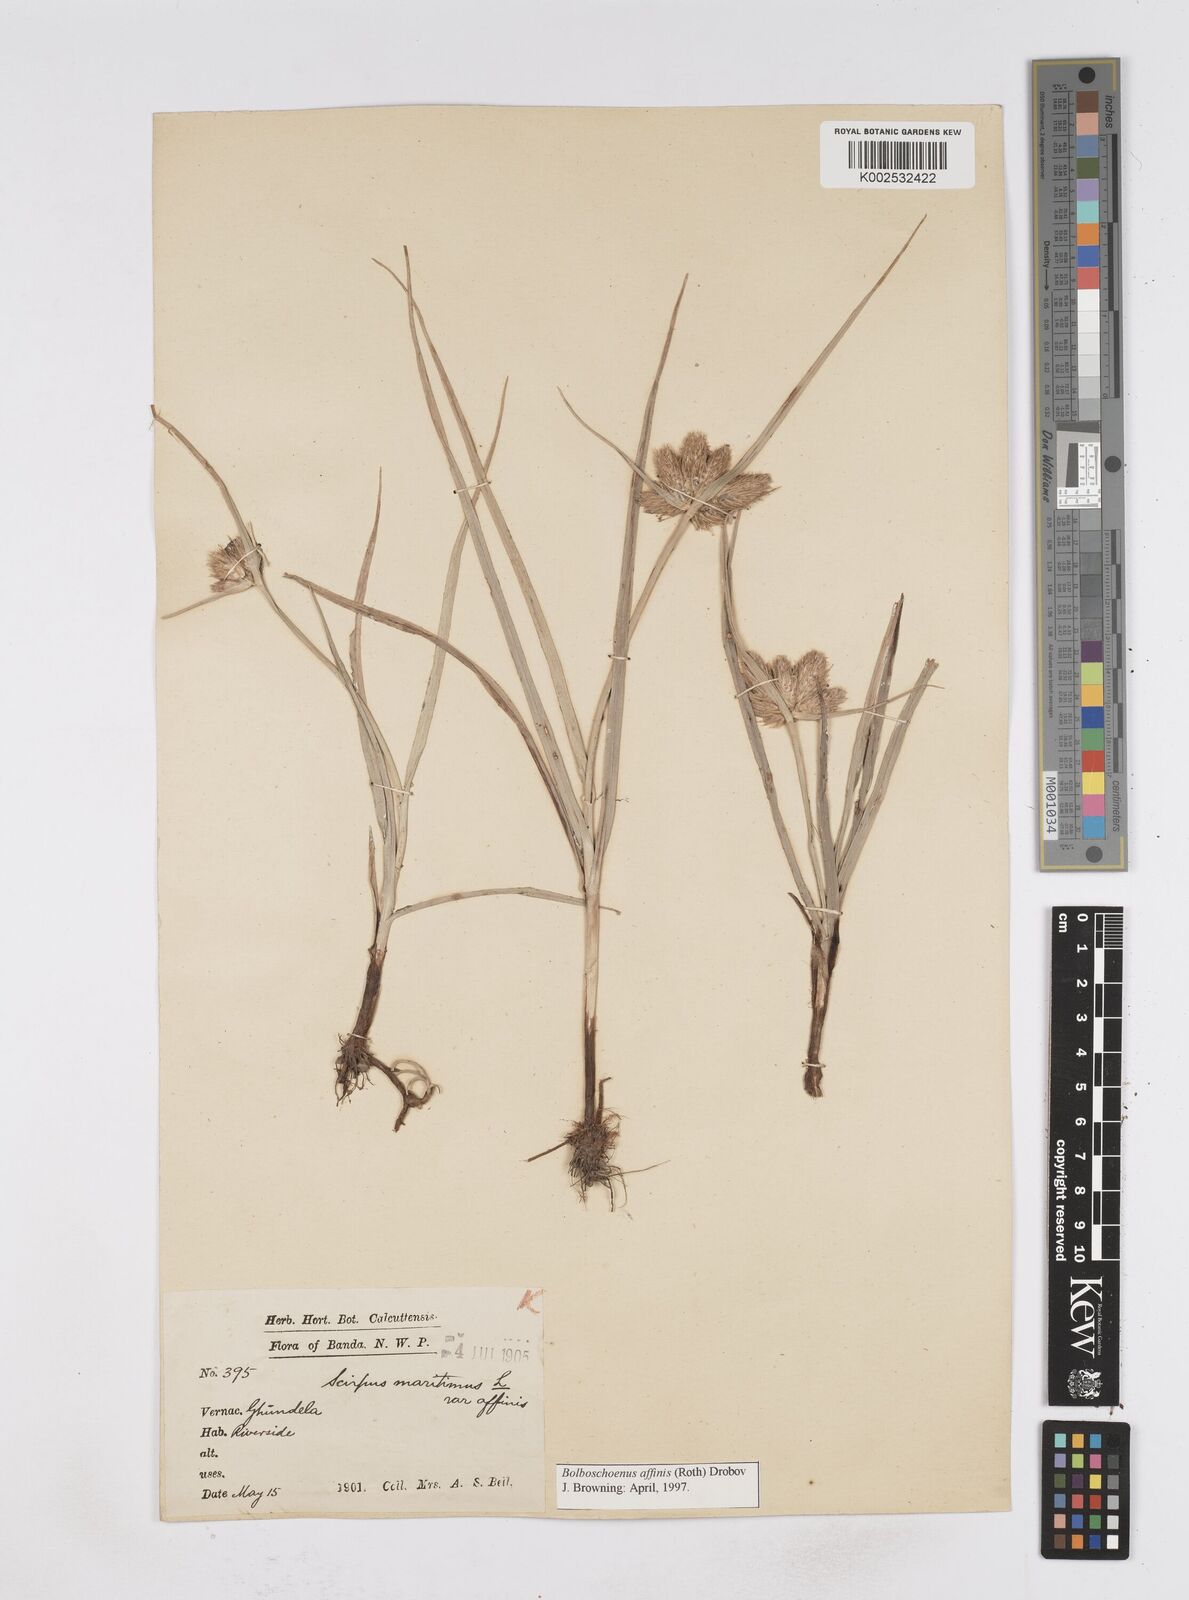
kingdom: Plantae
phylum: Tracheophyta
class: Liliopsida
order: Poales
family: Cyperaceae
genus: Bolboschoenus
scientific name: Bolboschoenus maritimus
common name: Sea club-rush
